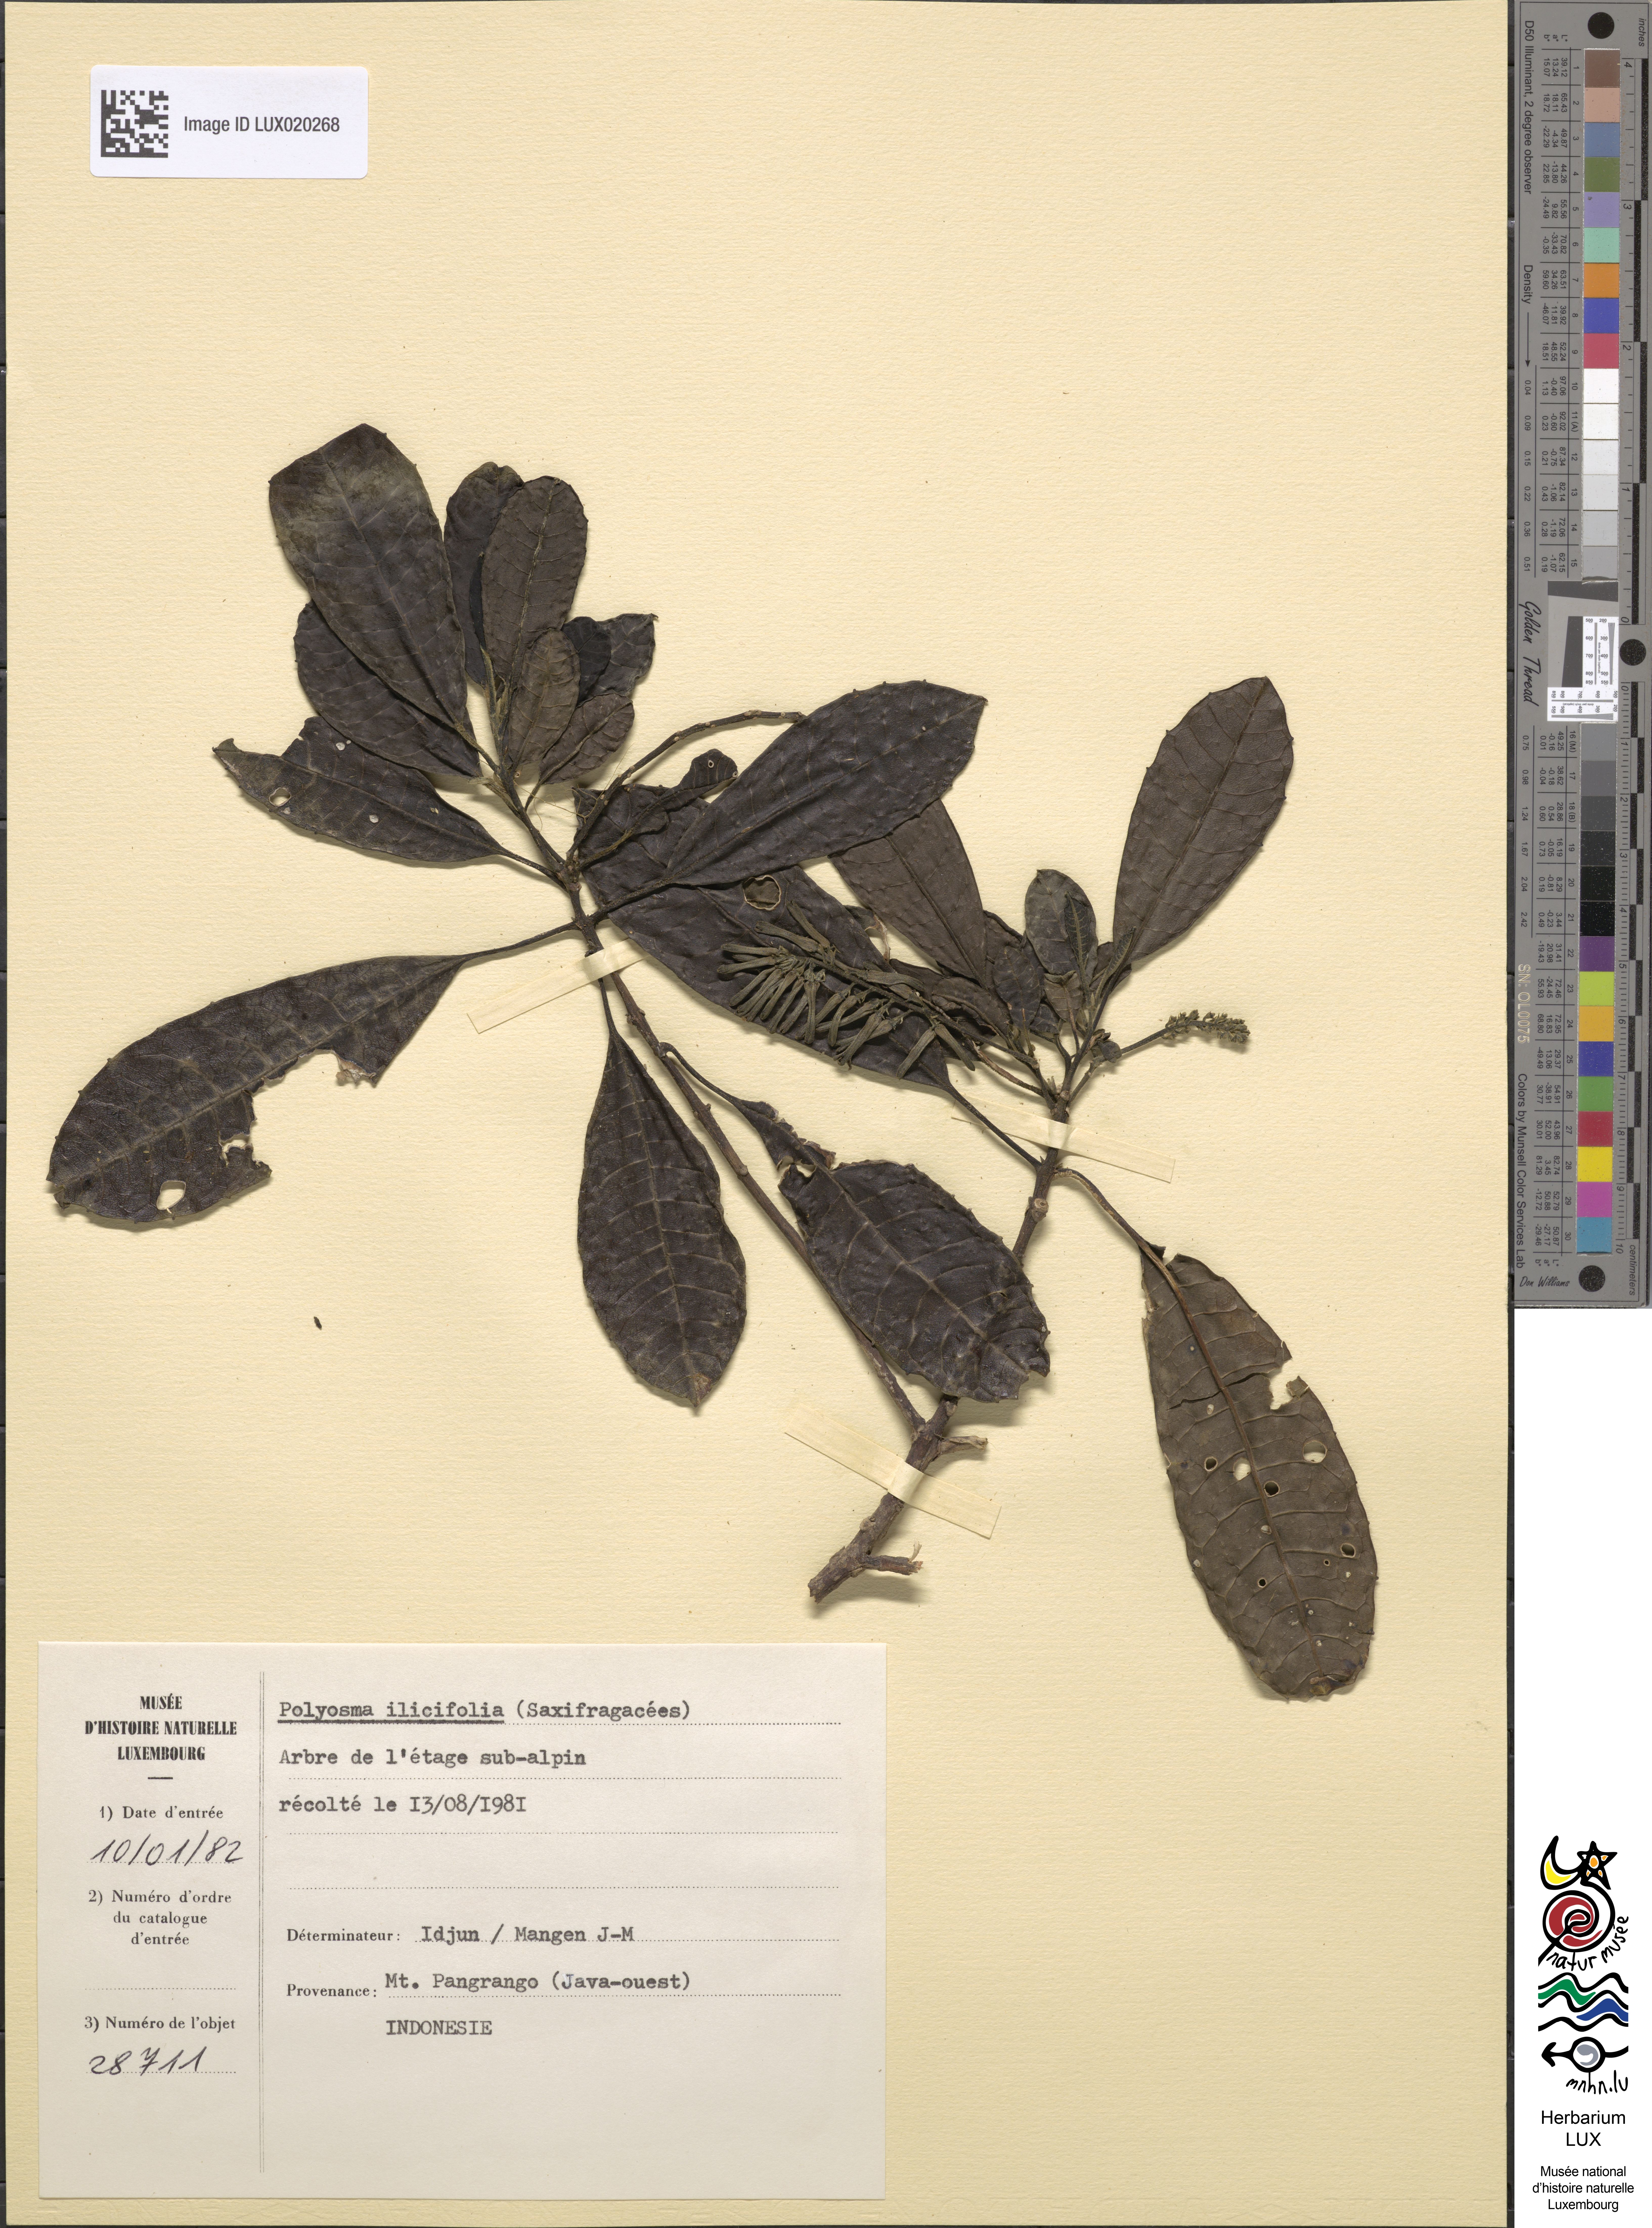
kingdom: Plantae
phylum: Tracheophyta
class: Magnoliopsida
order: Escalloniales
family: Escalloniaceae
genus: Polyosma
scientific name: Polyosma ilicifolia
